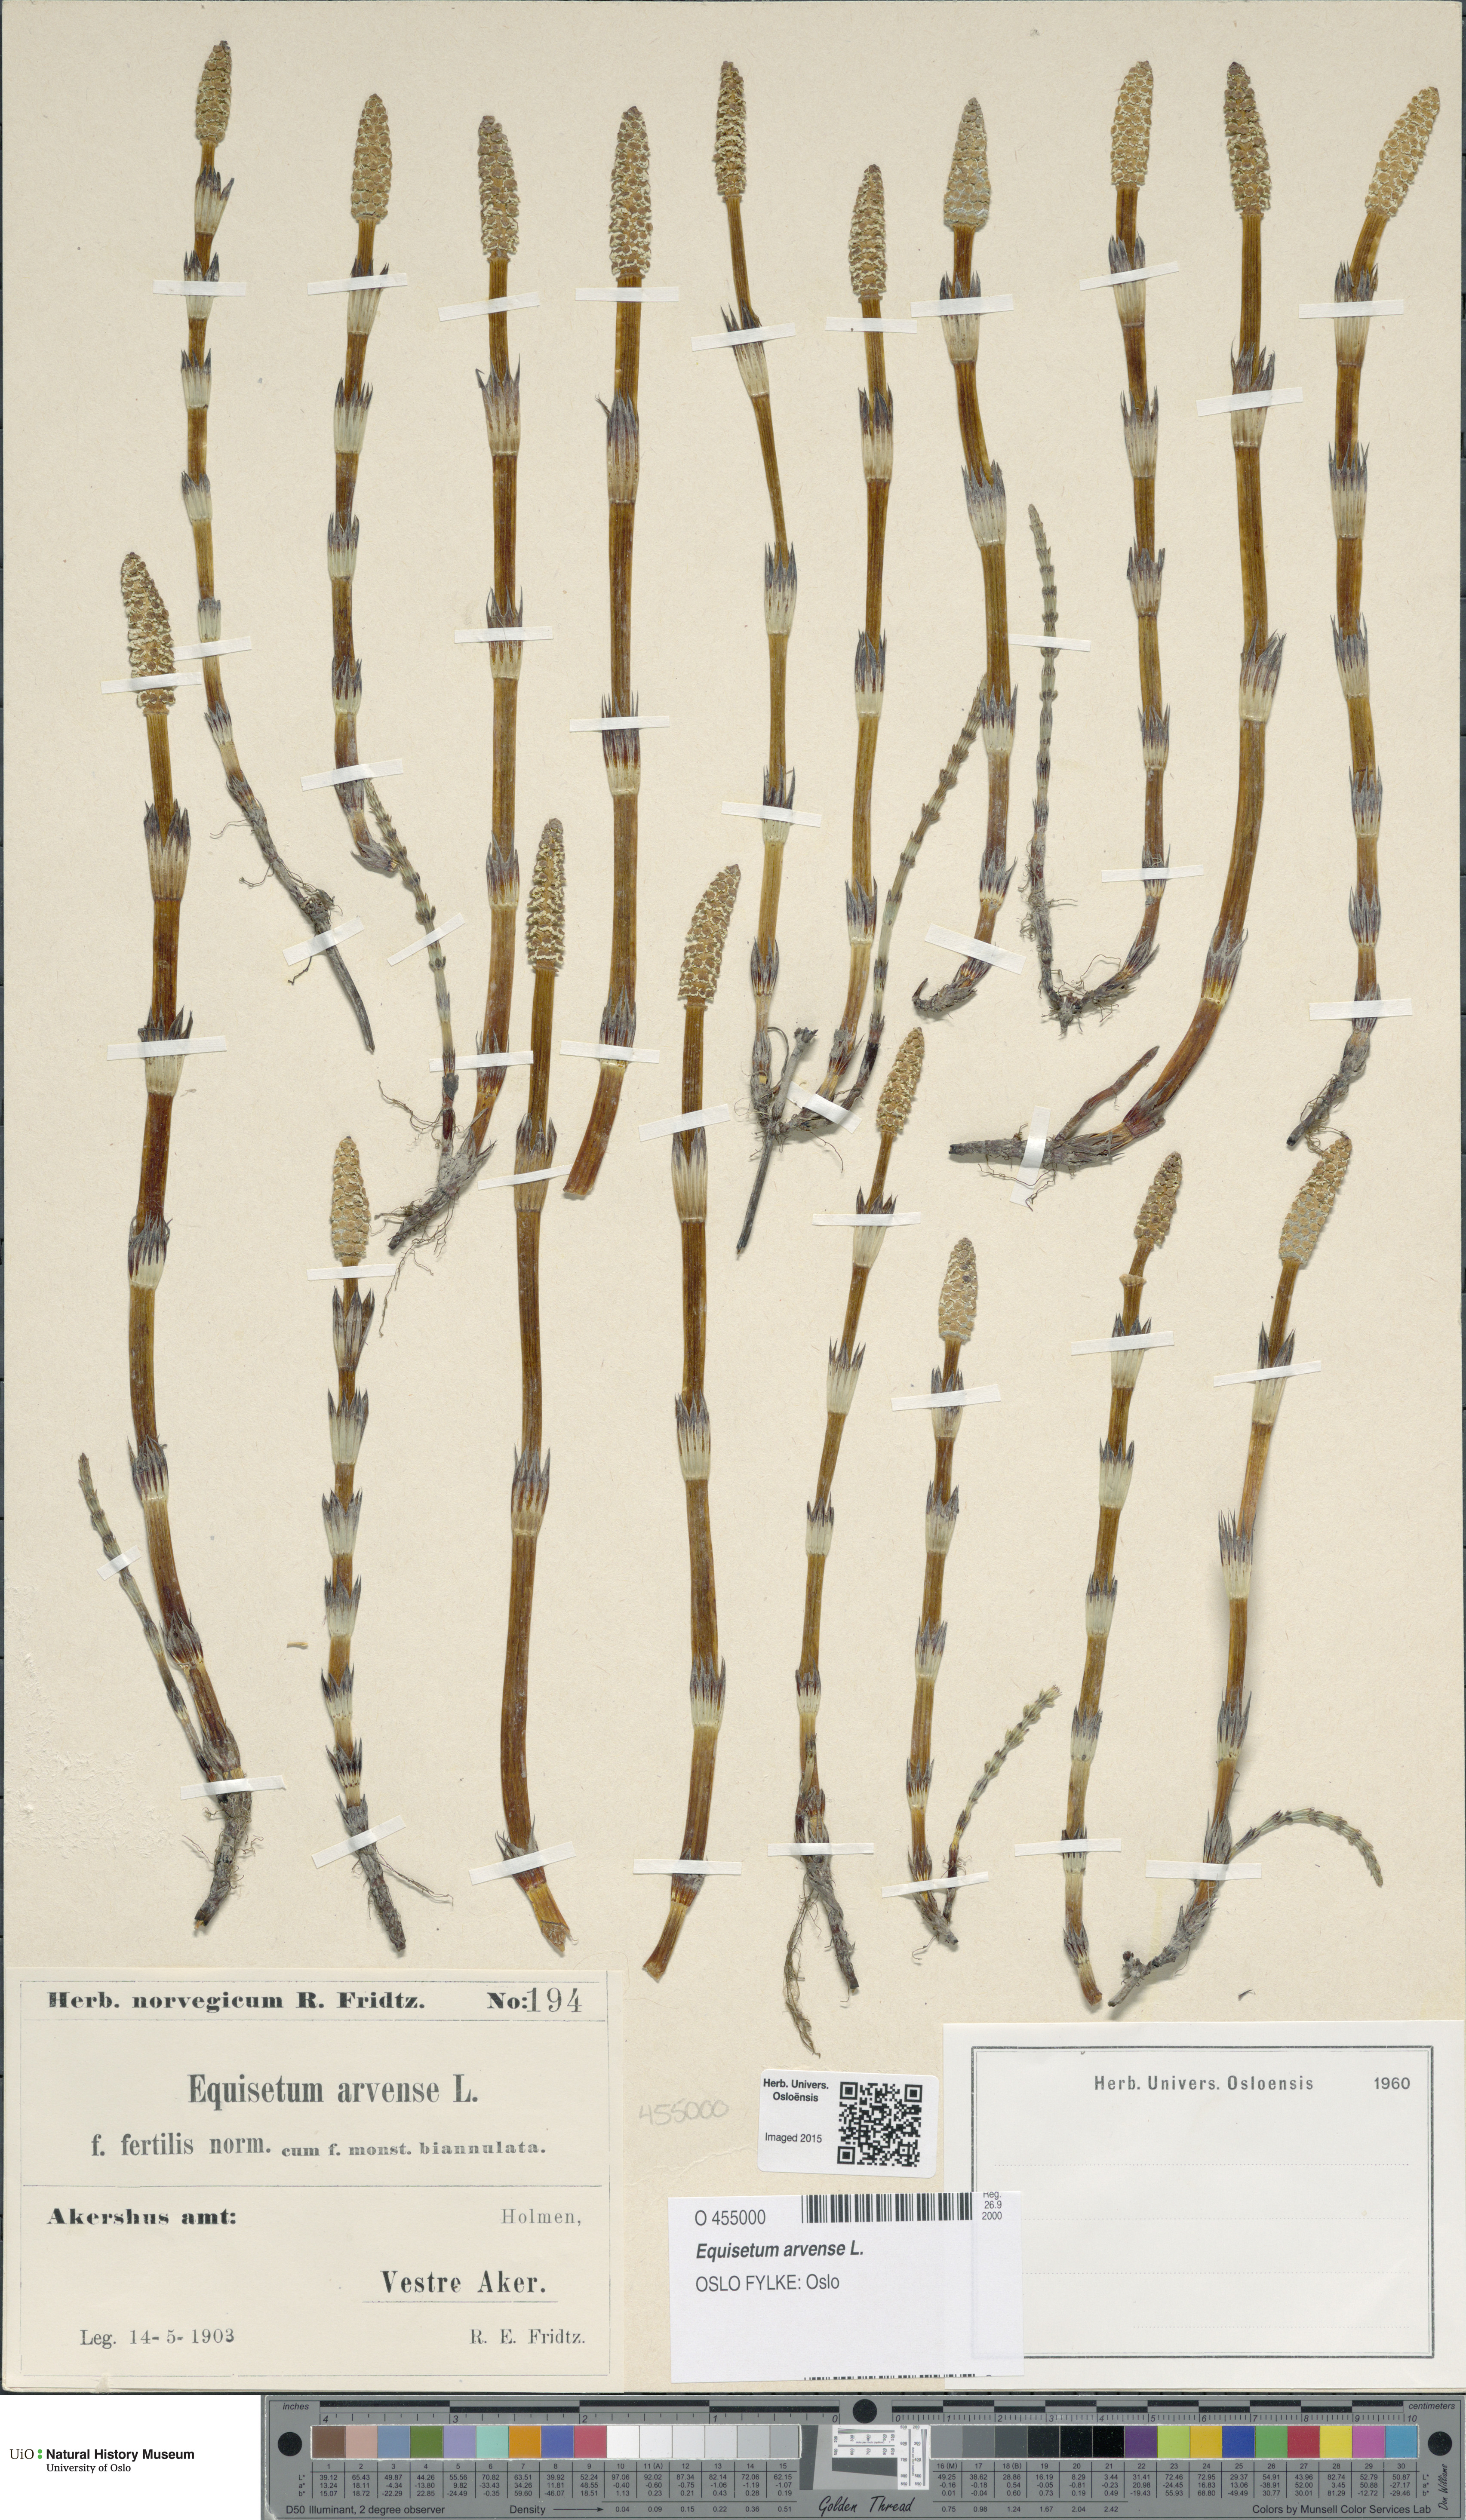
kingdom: Plantae
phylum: Tracheophyta
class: Polypodiopsida
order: Equisetales
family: Equisetaceae
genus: Equisetum
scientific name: Equisetum arvense
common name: Field horsetail
